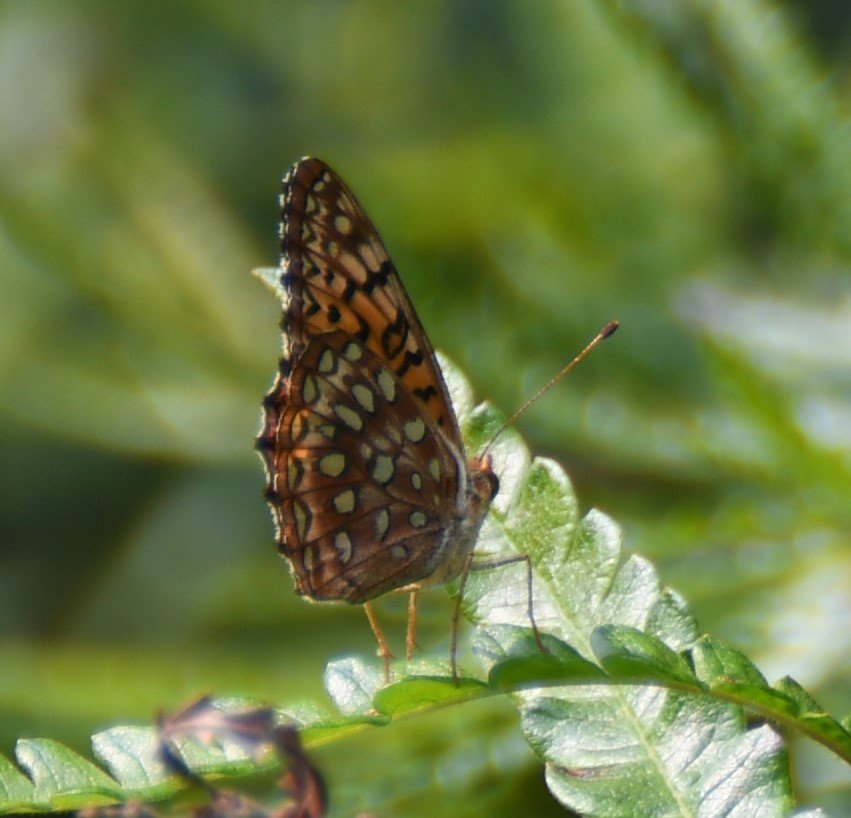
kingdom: Animalia
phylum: Arthropoda
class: Insecta
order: Lepidoptera
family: Nymphalidae
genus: Speyeria
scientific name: Speyeria aphrodite
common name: Aphrodite Fritillary
